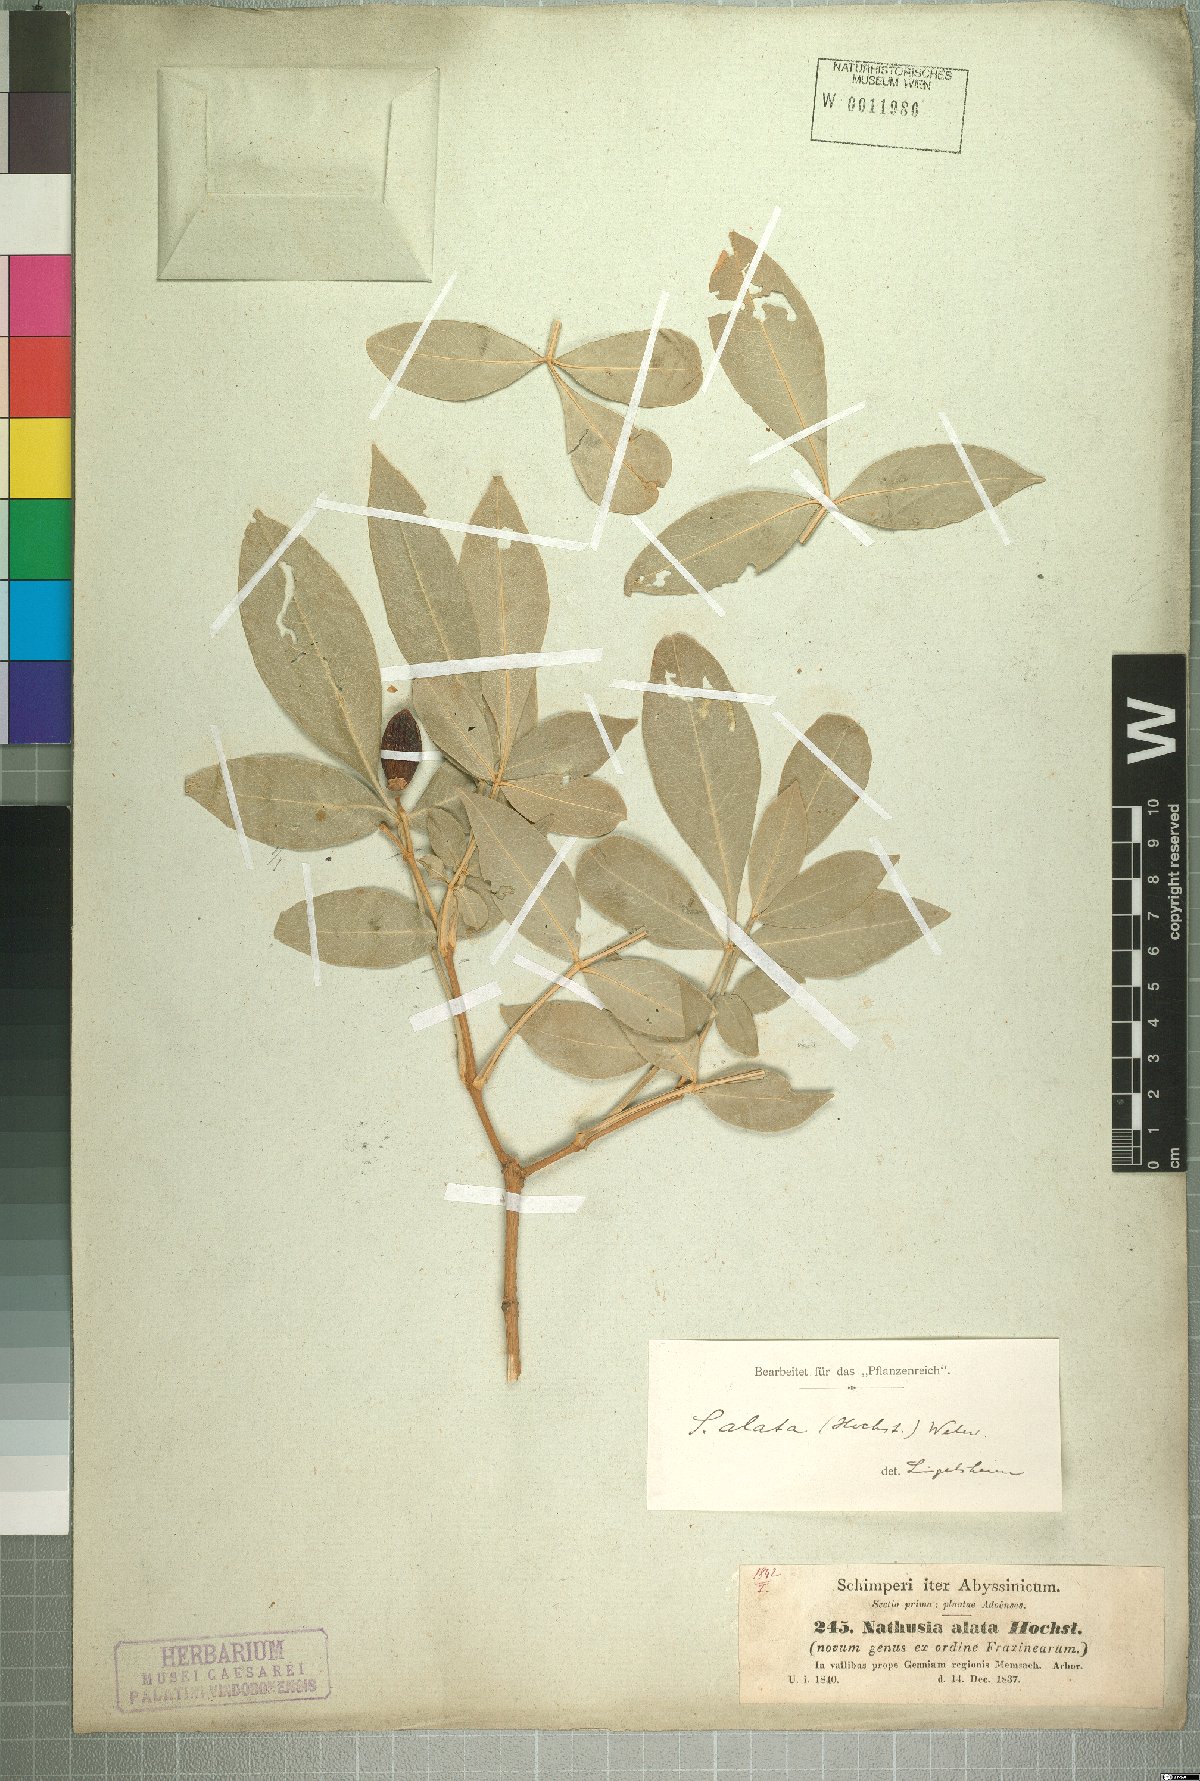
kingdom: Plantae
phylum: Tracheophyta
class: Magnoliopsida
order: Lamiales
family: Oleaceae
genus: Schrebera
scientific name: Schrebera alata
